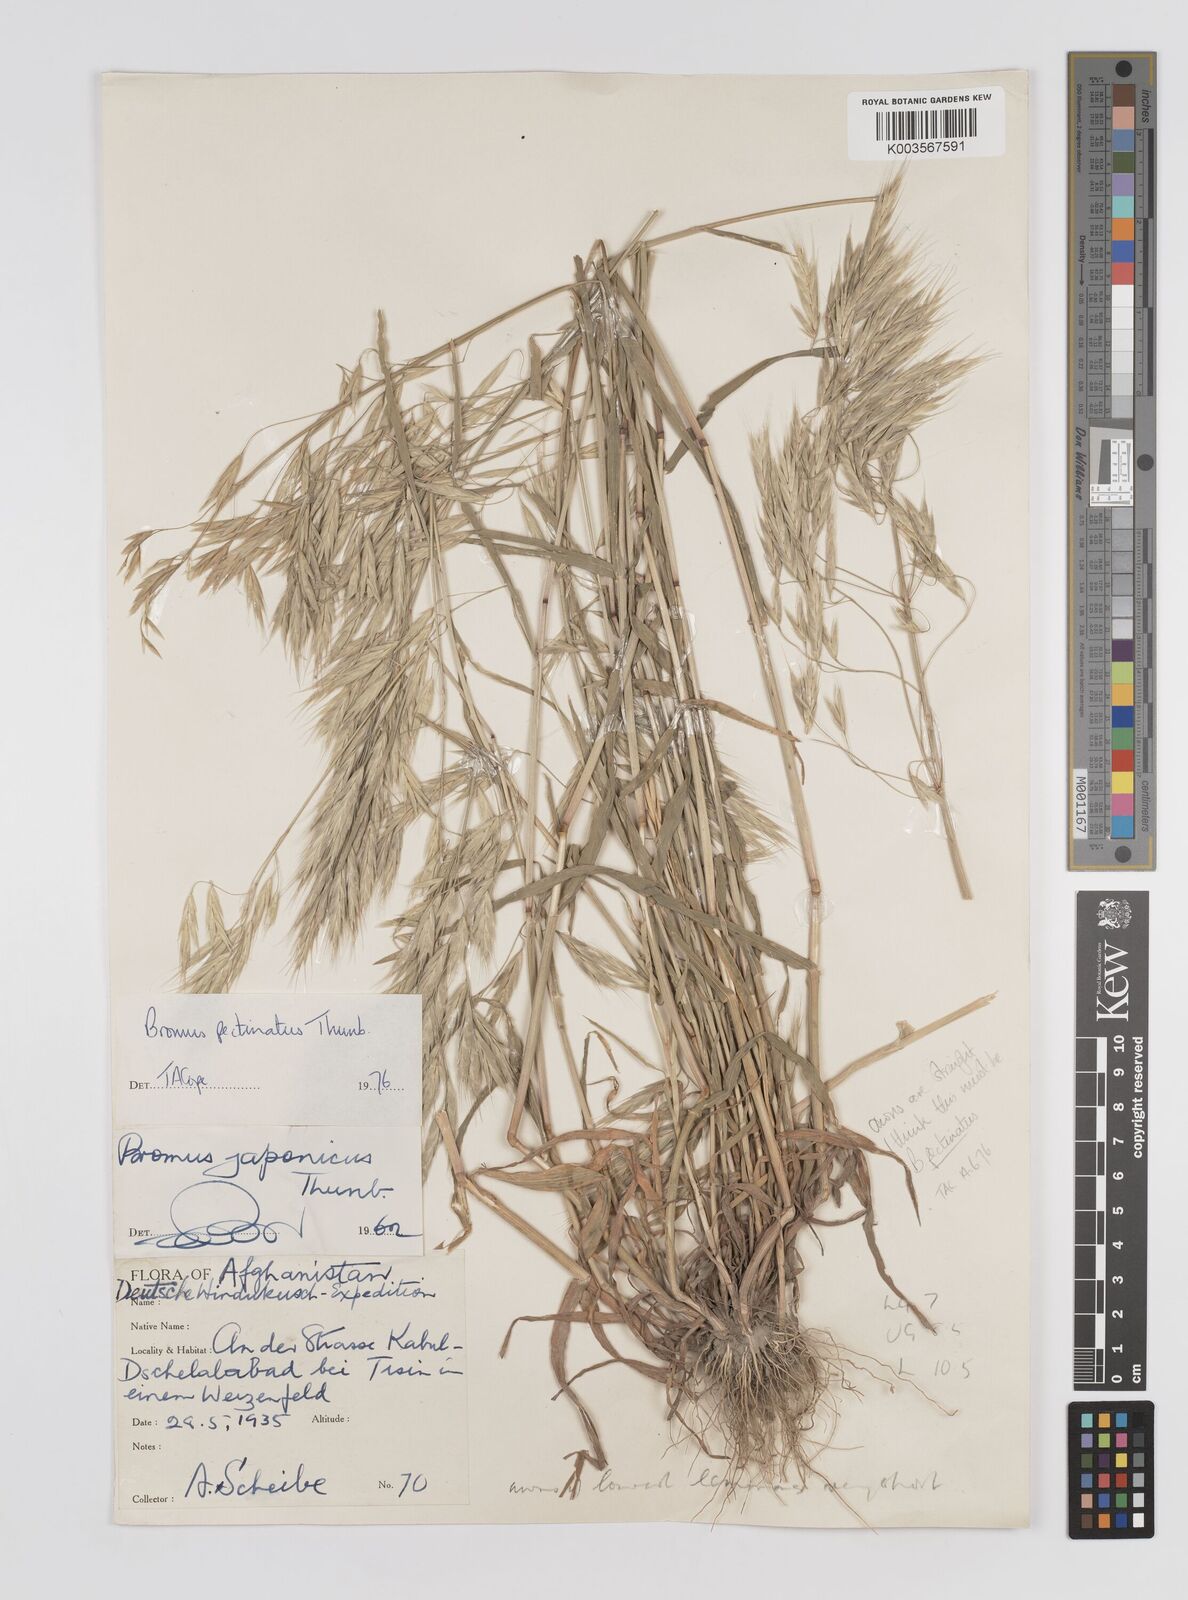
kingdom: Plantae
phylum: Tracheophyta
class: Liliopsida
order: Poales
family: Poaceae
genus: Bromus
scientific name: Bromus pectinatus
